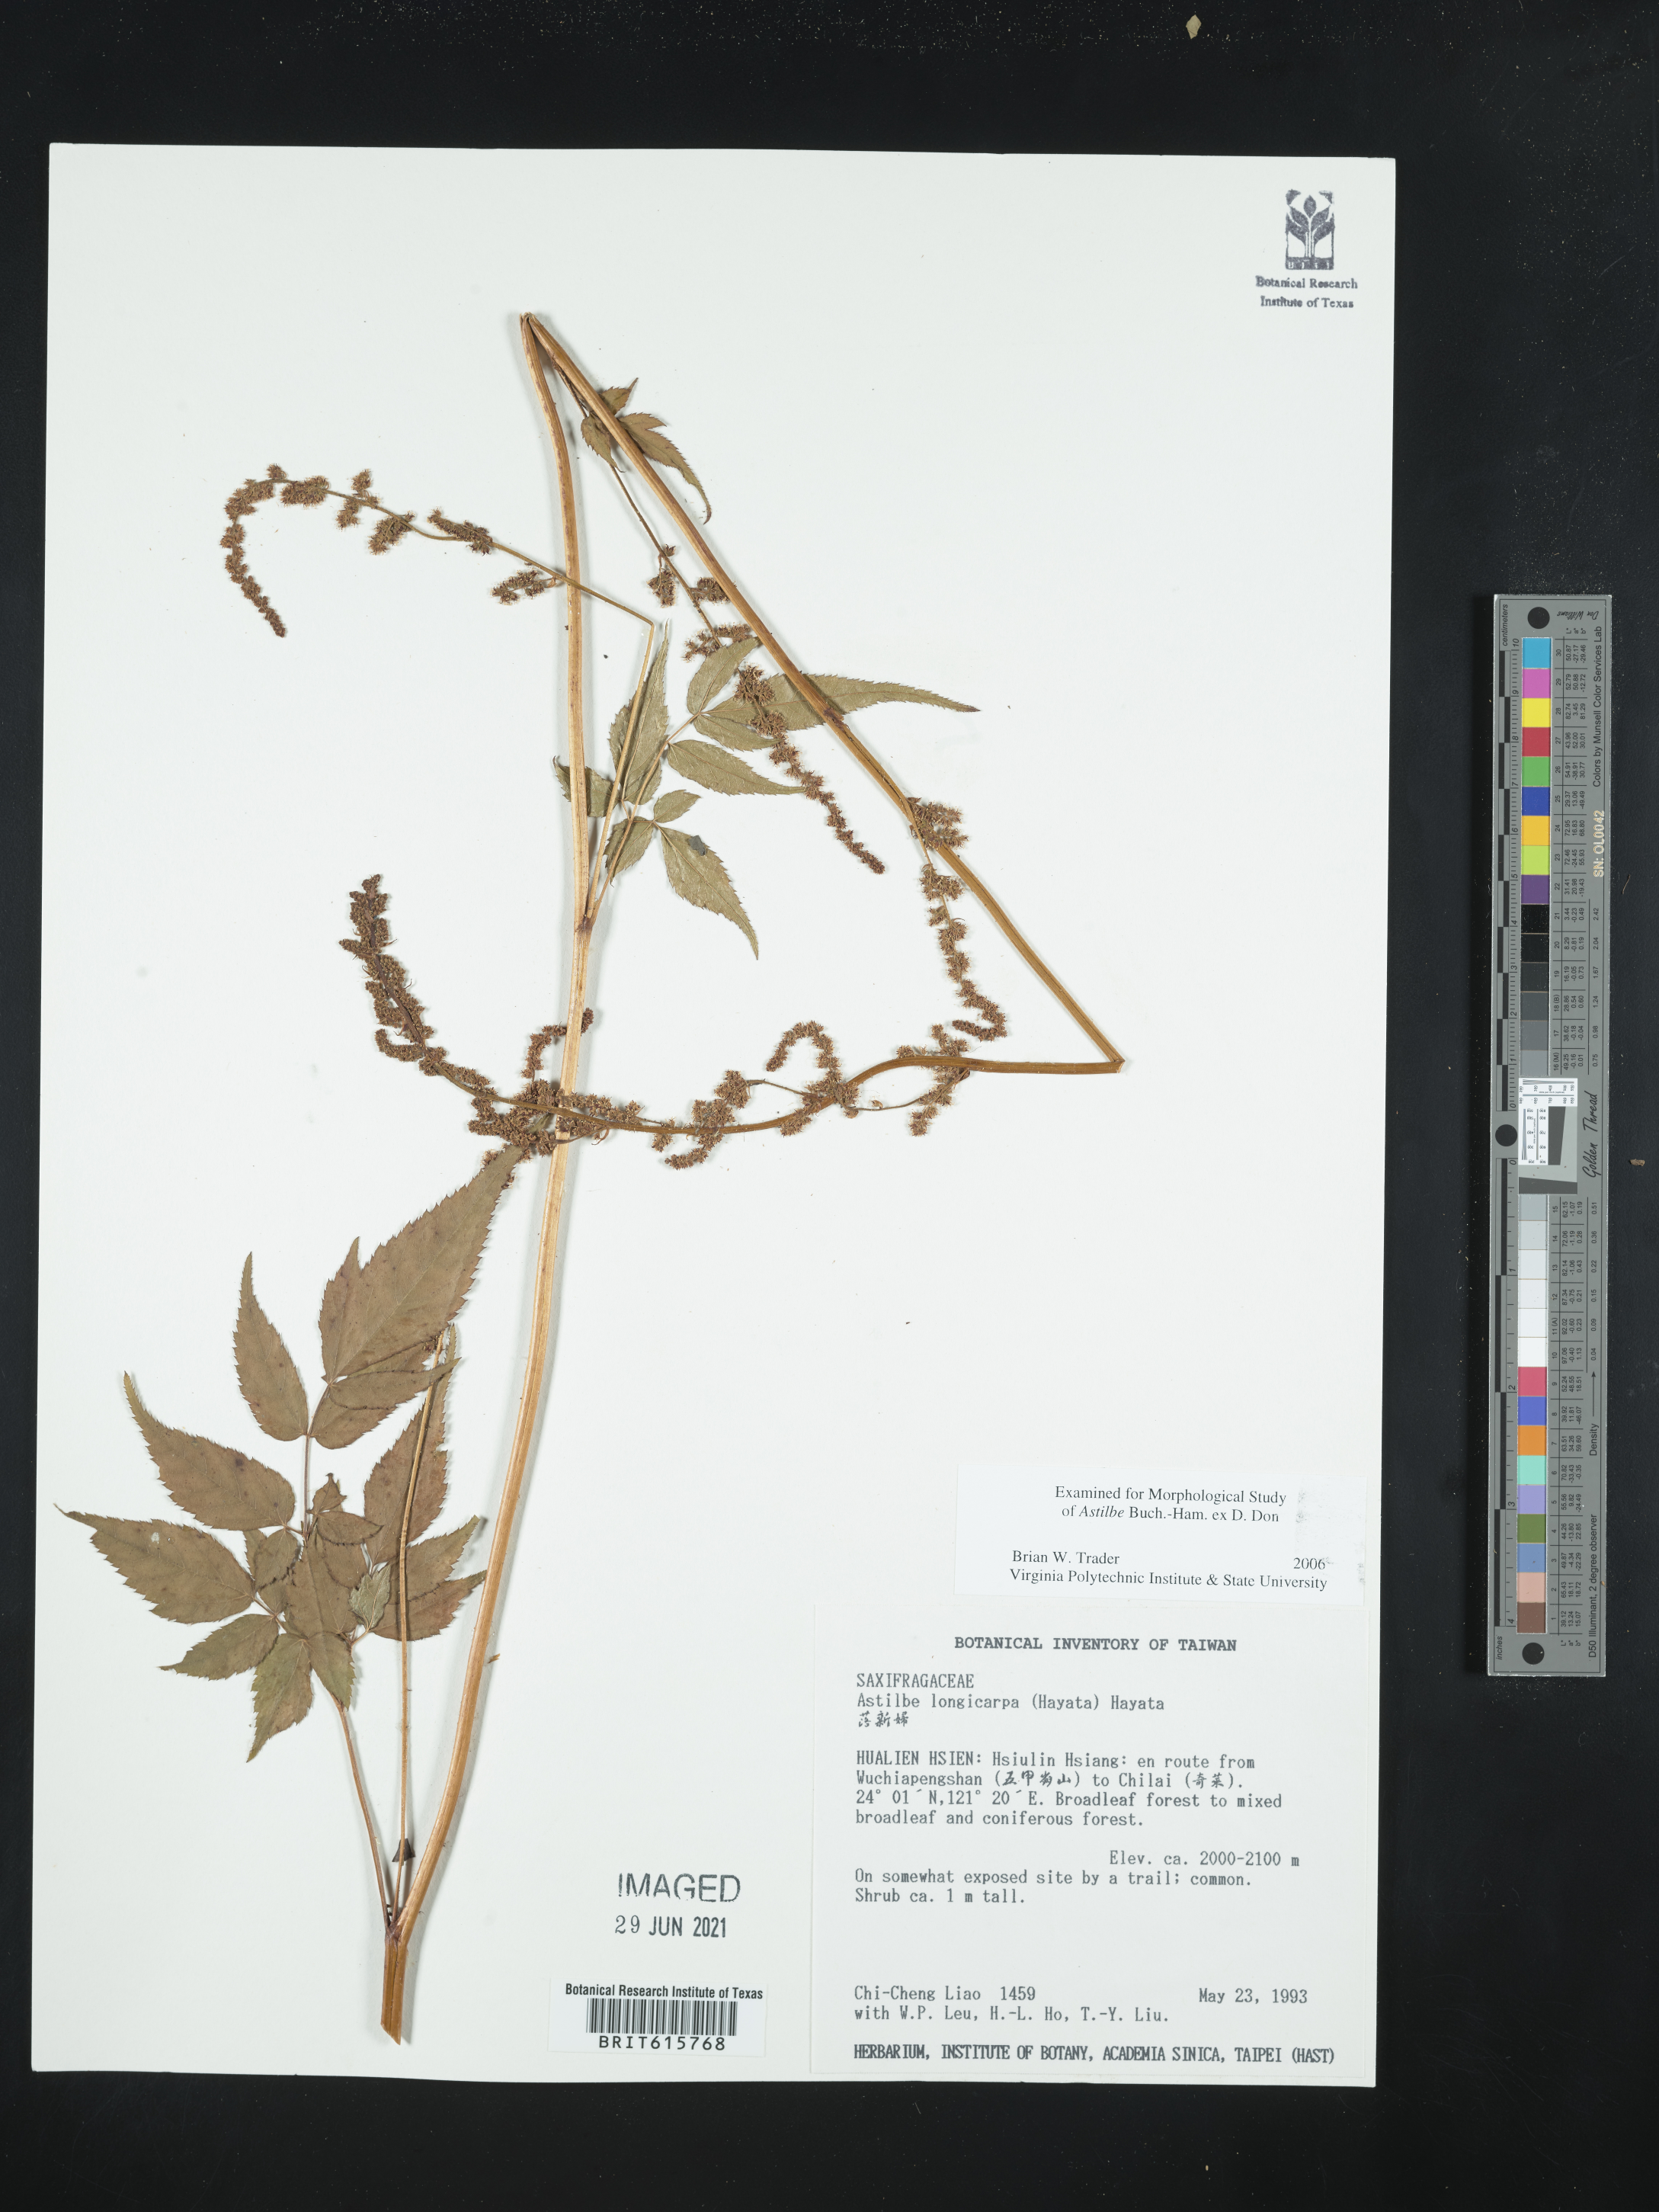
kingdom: Plantae
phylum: Tracheophyta
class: Magnoliopsida
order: Saxifragales
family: Saxifragaceae
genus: Astilbe
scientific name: Astilbe longicarpa
